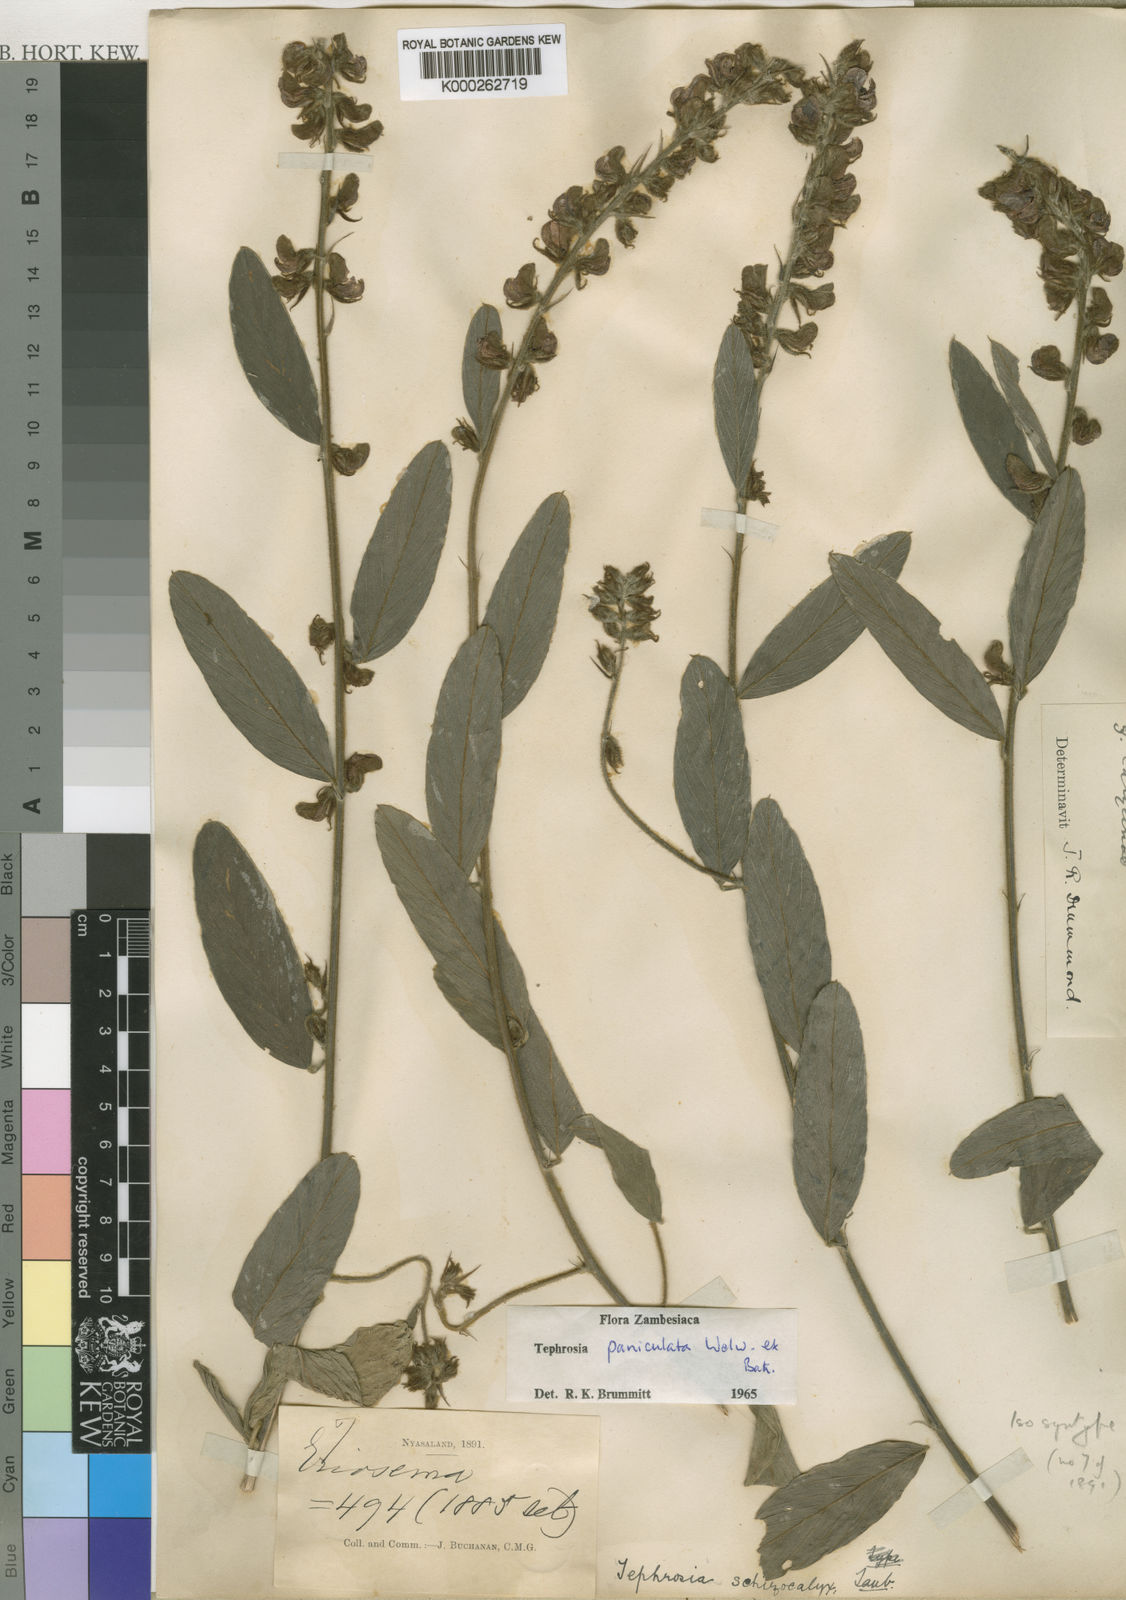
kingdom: Plantae
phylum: Tracheophyta
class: Magnoliopsida
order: Fabales
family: Fabaceae
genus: Tephrosia
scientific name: Tephrosia paniculata
